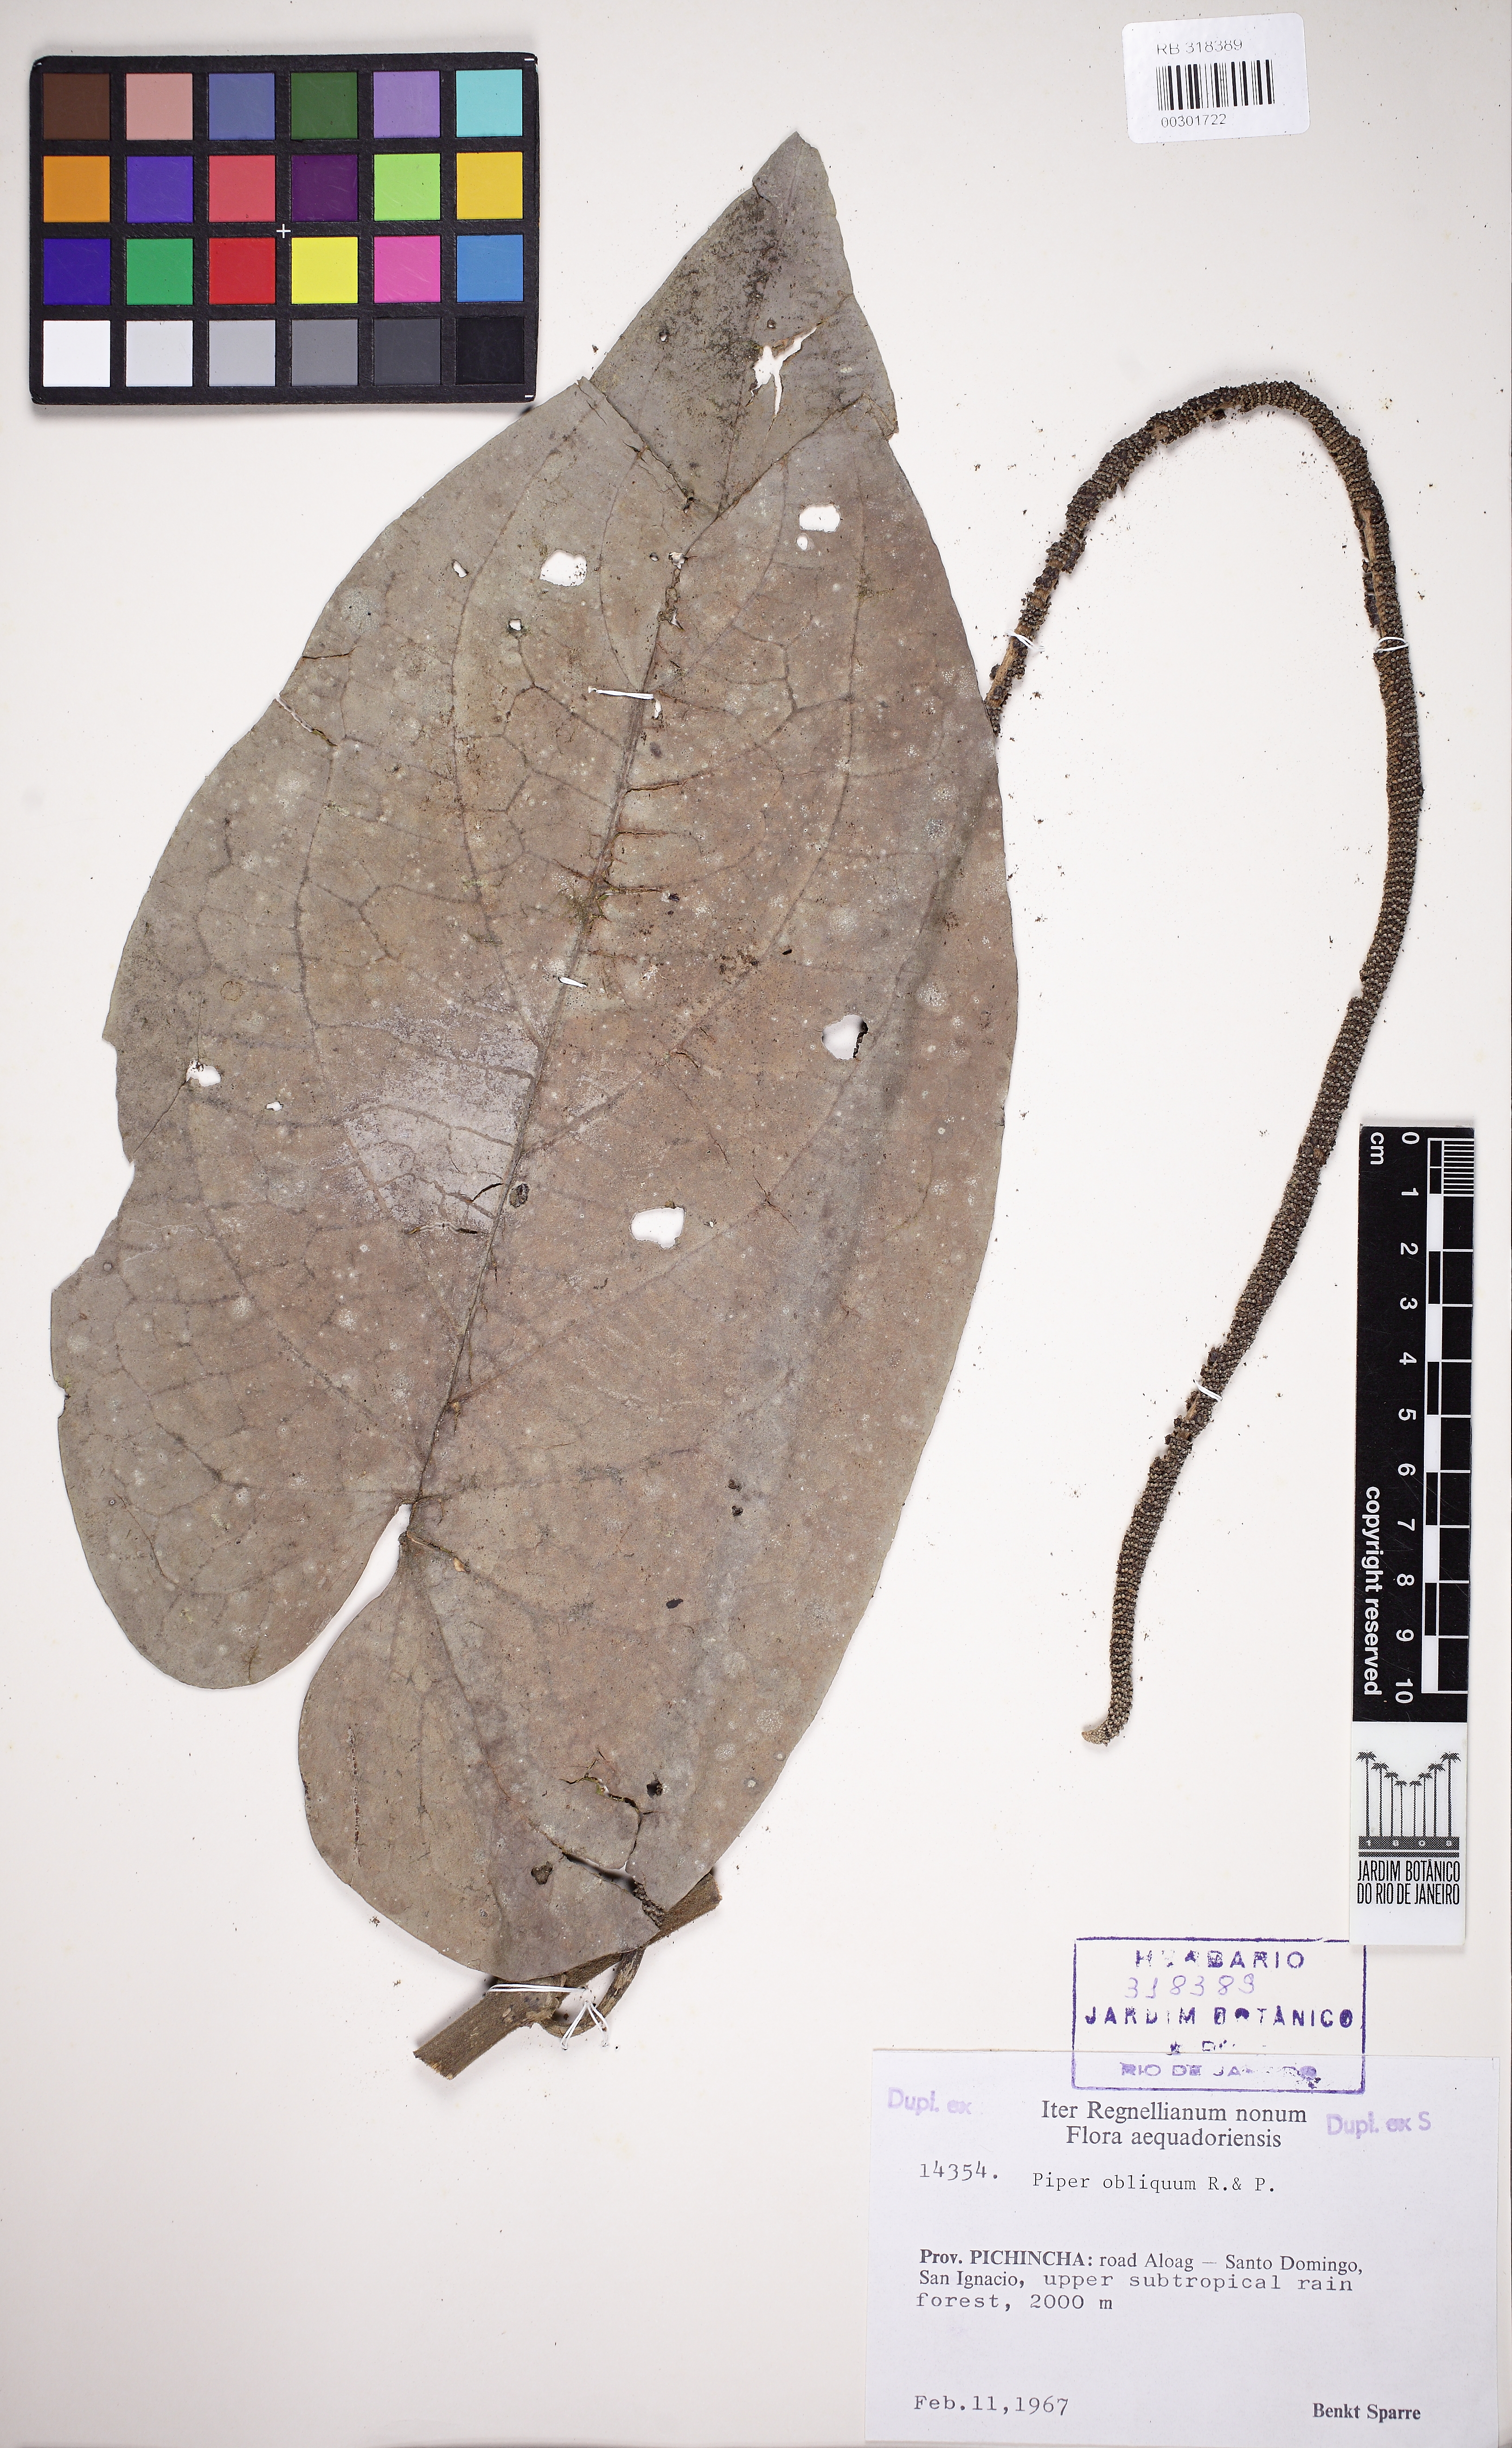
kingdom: Plantae
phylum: Tracheophyta
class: Magnoliopsida
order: Piperales
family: Piperaceae
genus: Piper
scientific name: Piper obliquum
